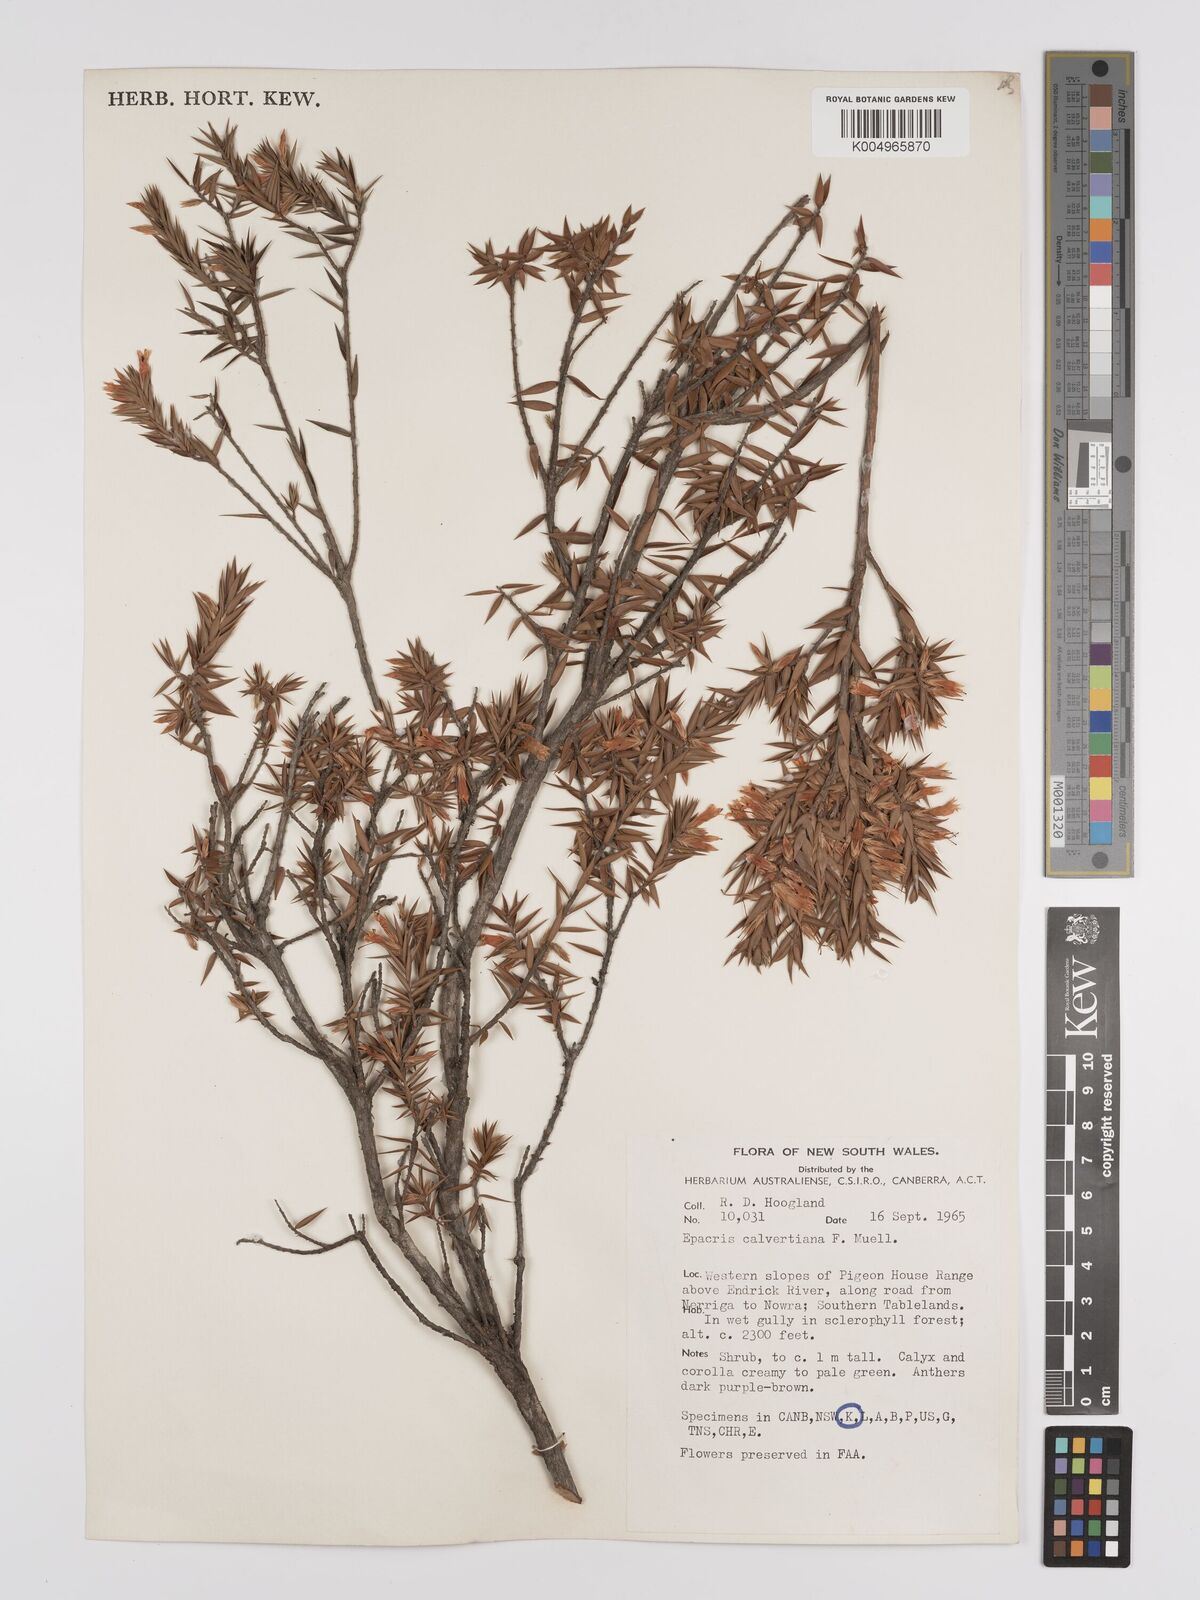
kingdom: Plantae
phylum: Tracheophyta
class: Magnoliopsida
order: Ericales
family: Ericaceae
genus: Epacris
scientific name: Epacris calvertiana
